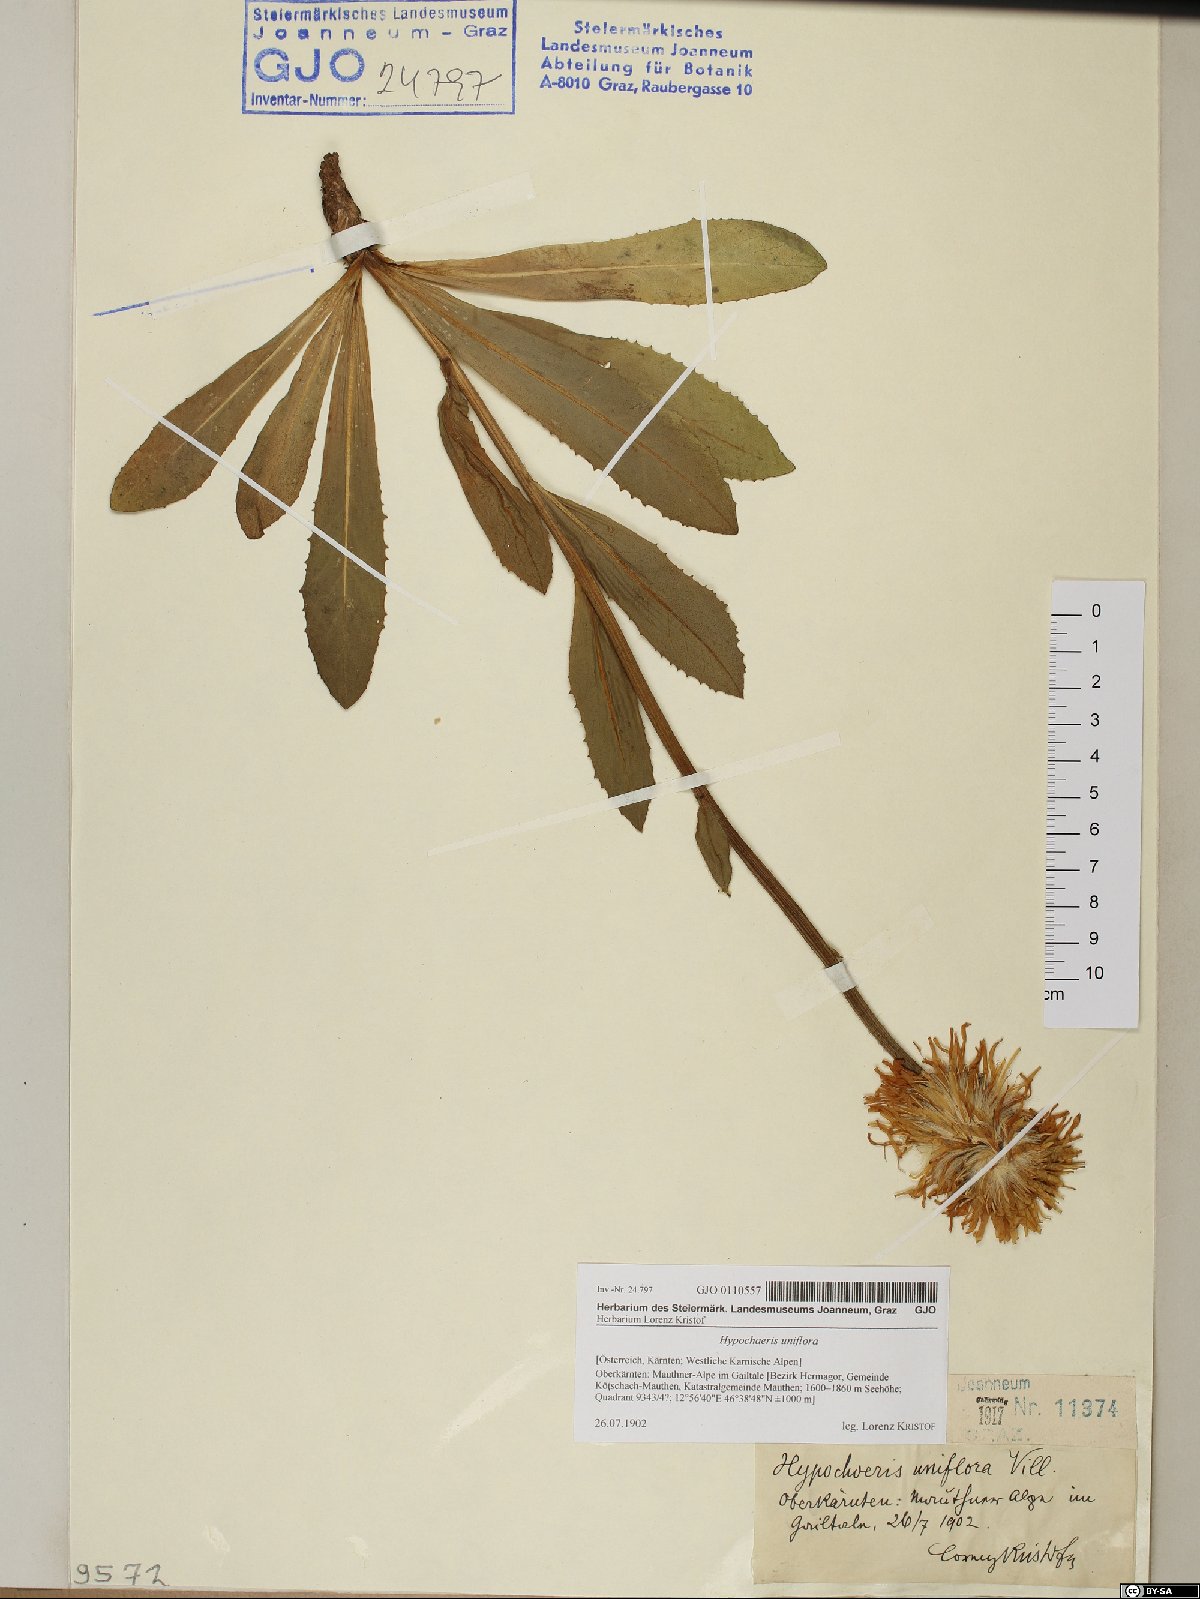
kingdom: Plantae
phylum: Tracheophyta
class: Magnoliopsida
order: Asterales
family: Asteraceae
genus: Trommsdorffia
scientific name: Trommsdorffia uniflora
